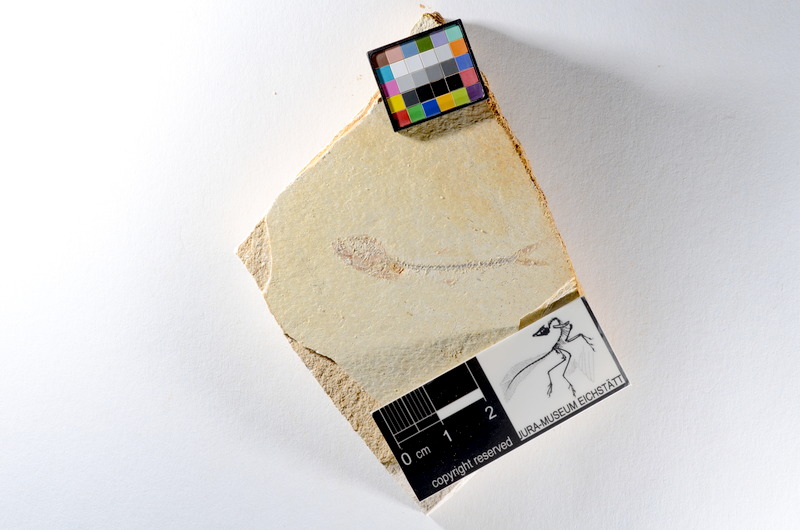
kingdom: Animalia
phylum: Chordata
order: Salmoniformes
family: Orthogonikleithridae
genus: Orthogonikleithrus
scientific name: Orthogonikleithrus hoelli
